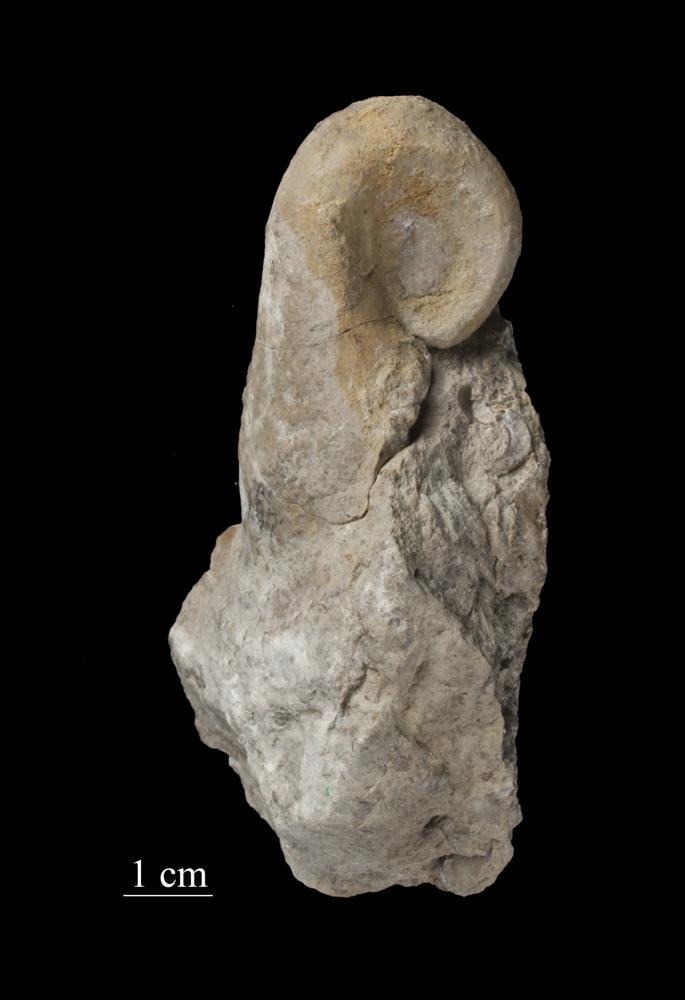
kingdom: Animalia
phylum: Mollusca
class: Gastropoda
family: Bellerophontidae
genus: Bellerophon
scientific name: Bellerophon
